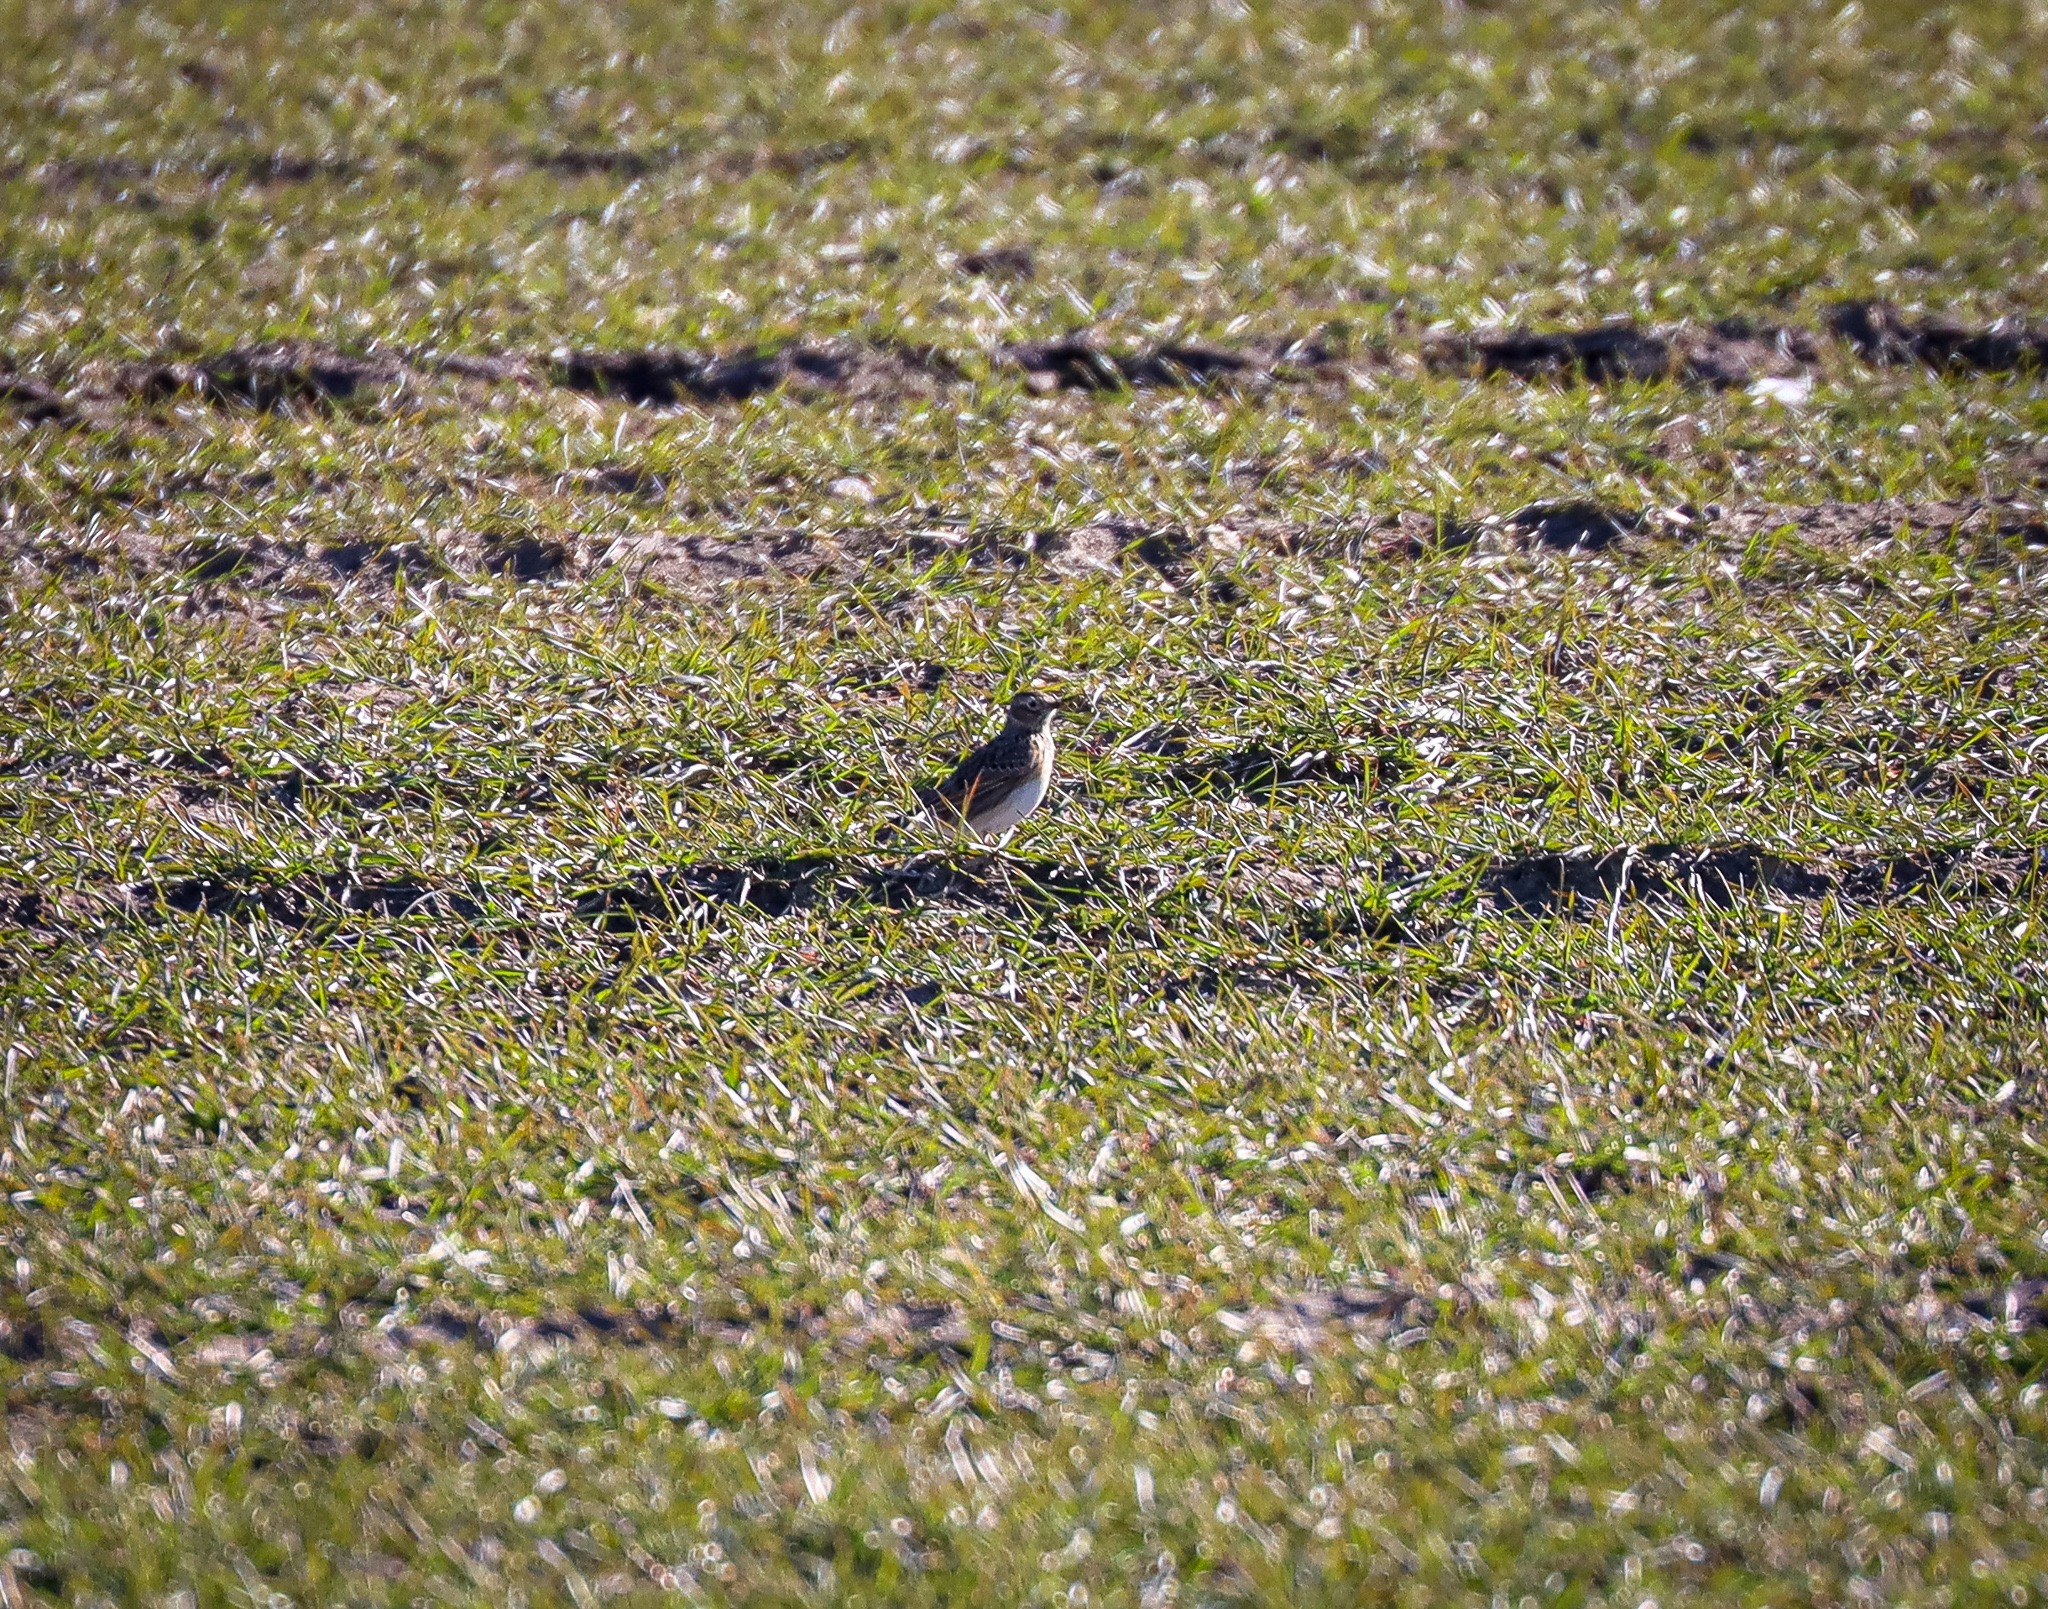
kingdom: Animalia
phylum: Chordata
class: Aves
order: Passeriformes
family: Alaudidae
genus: Alauda
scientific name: Alauda arvensis
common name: Sanglærke
